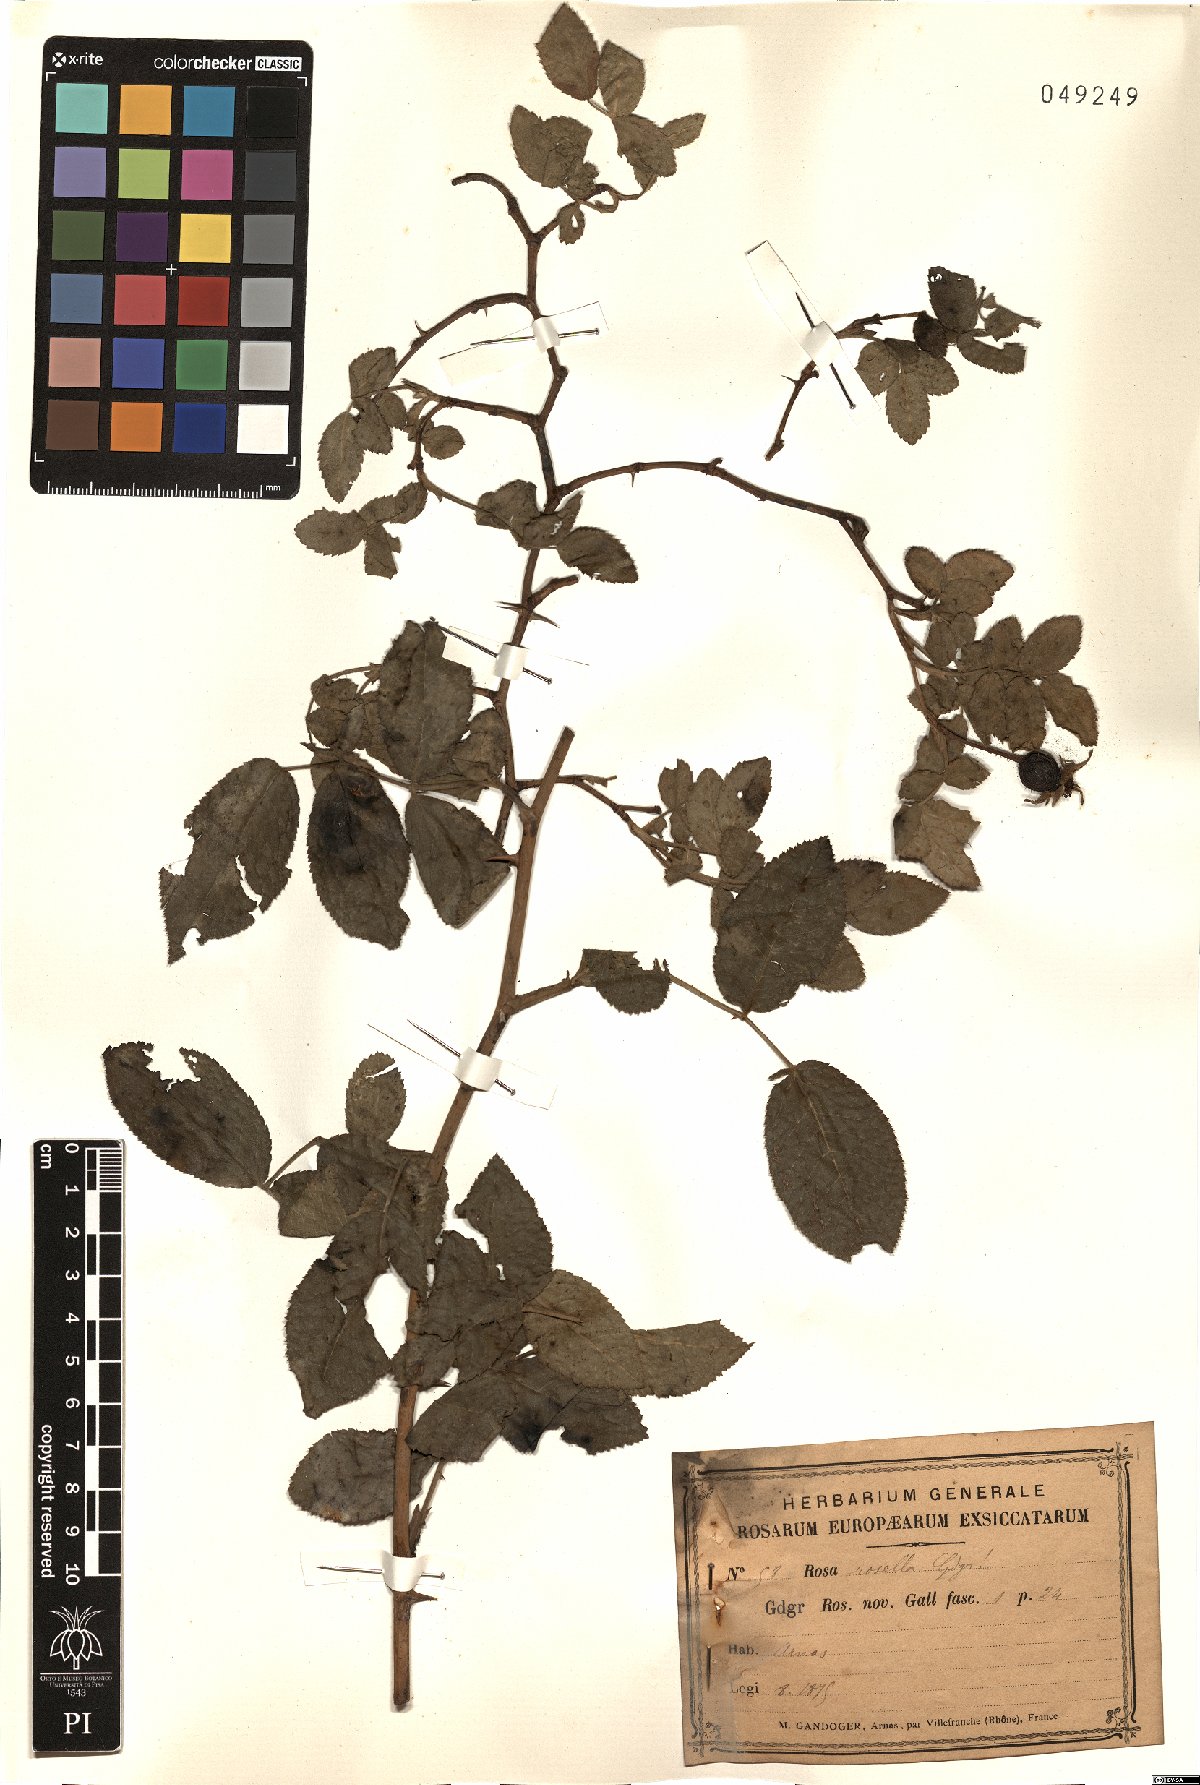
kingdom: Plantae
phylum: Tracheophyta
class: Magnoliopsida
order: Rosales
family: Rosaceae
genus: Rosa
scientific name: Rosa rosella
